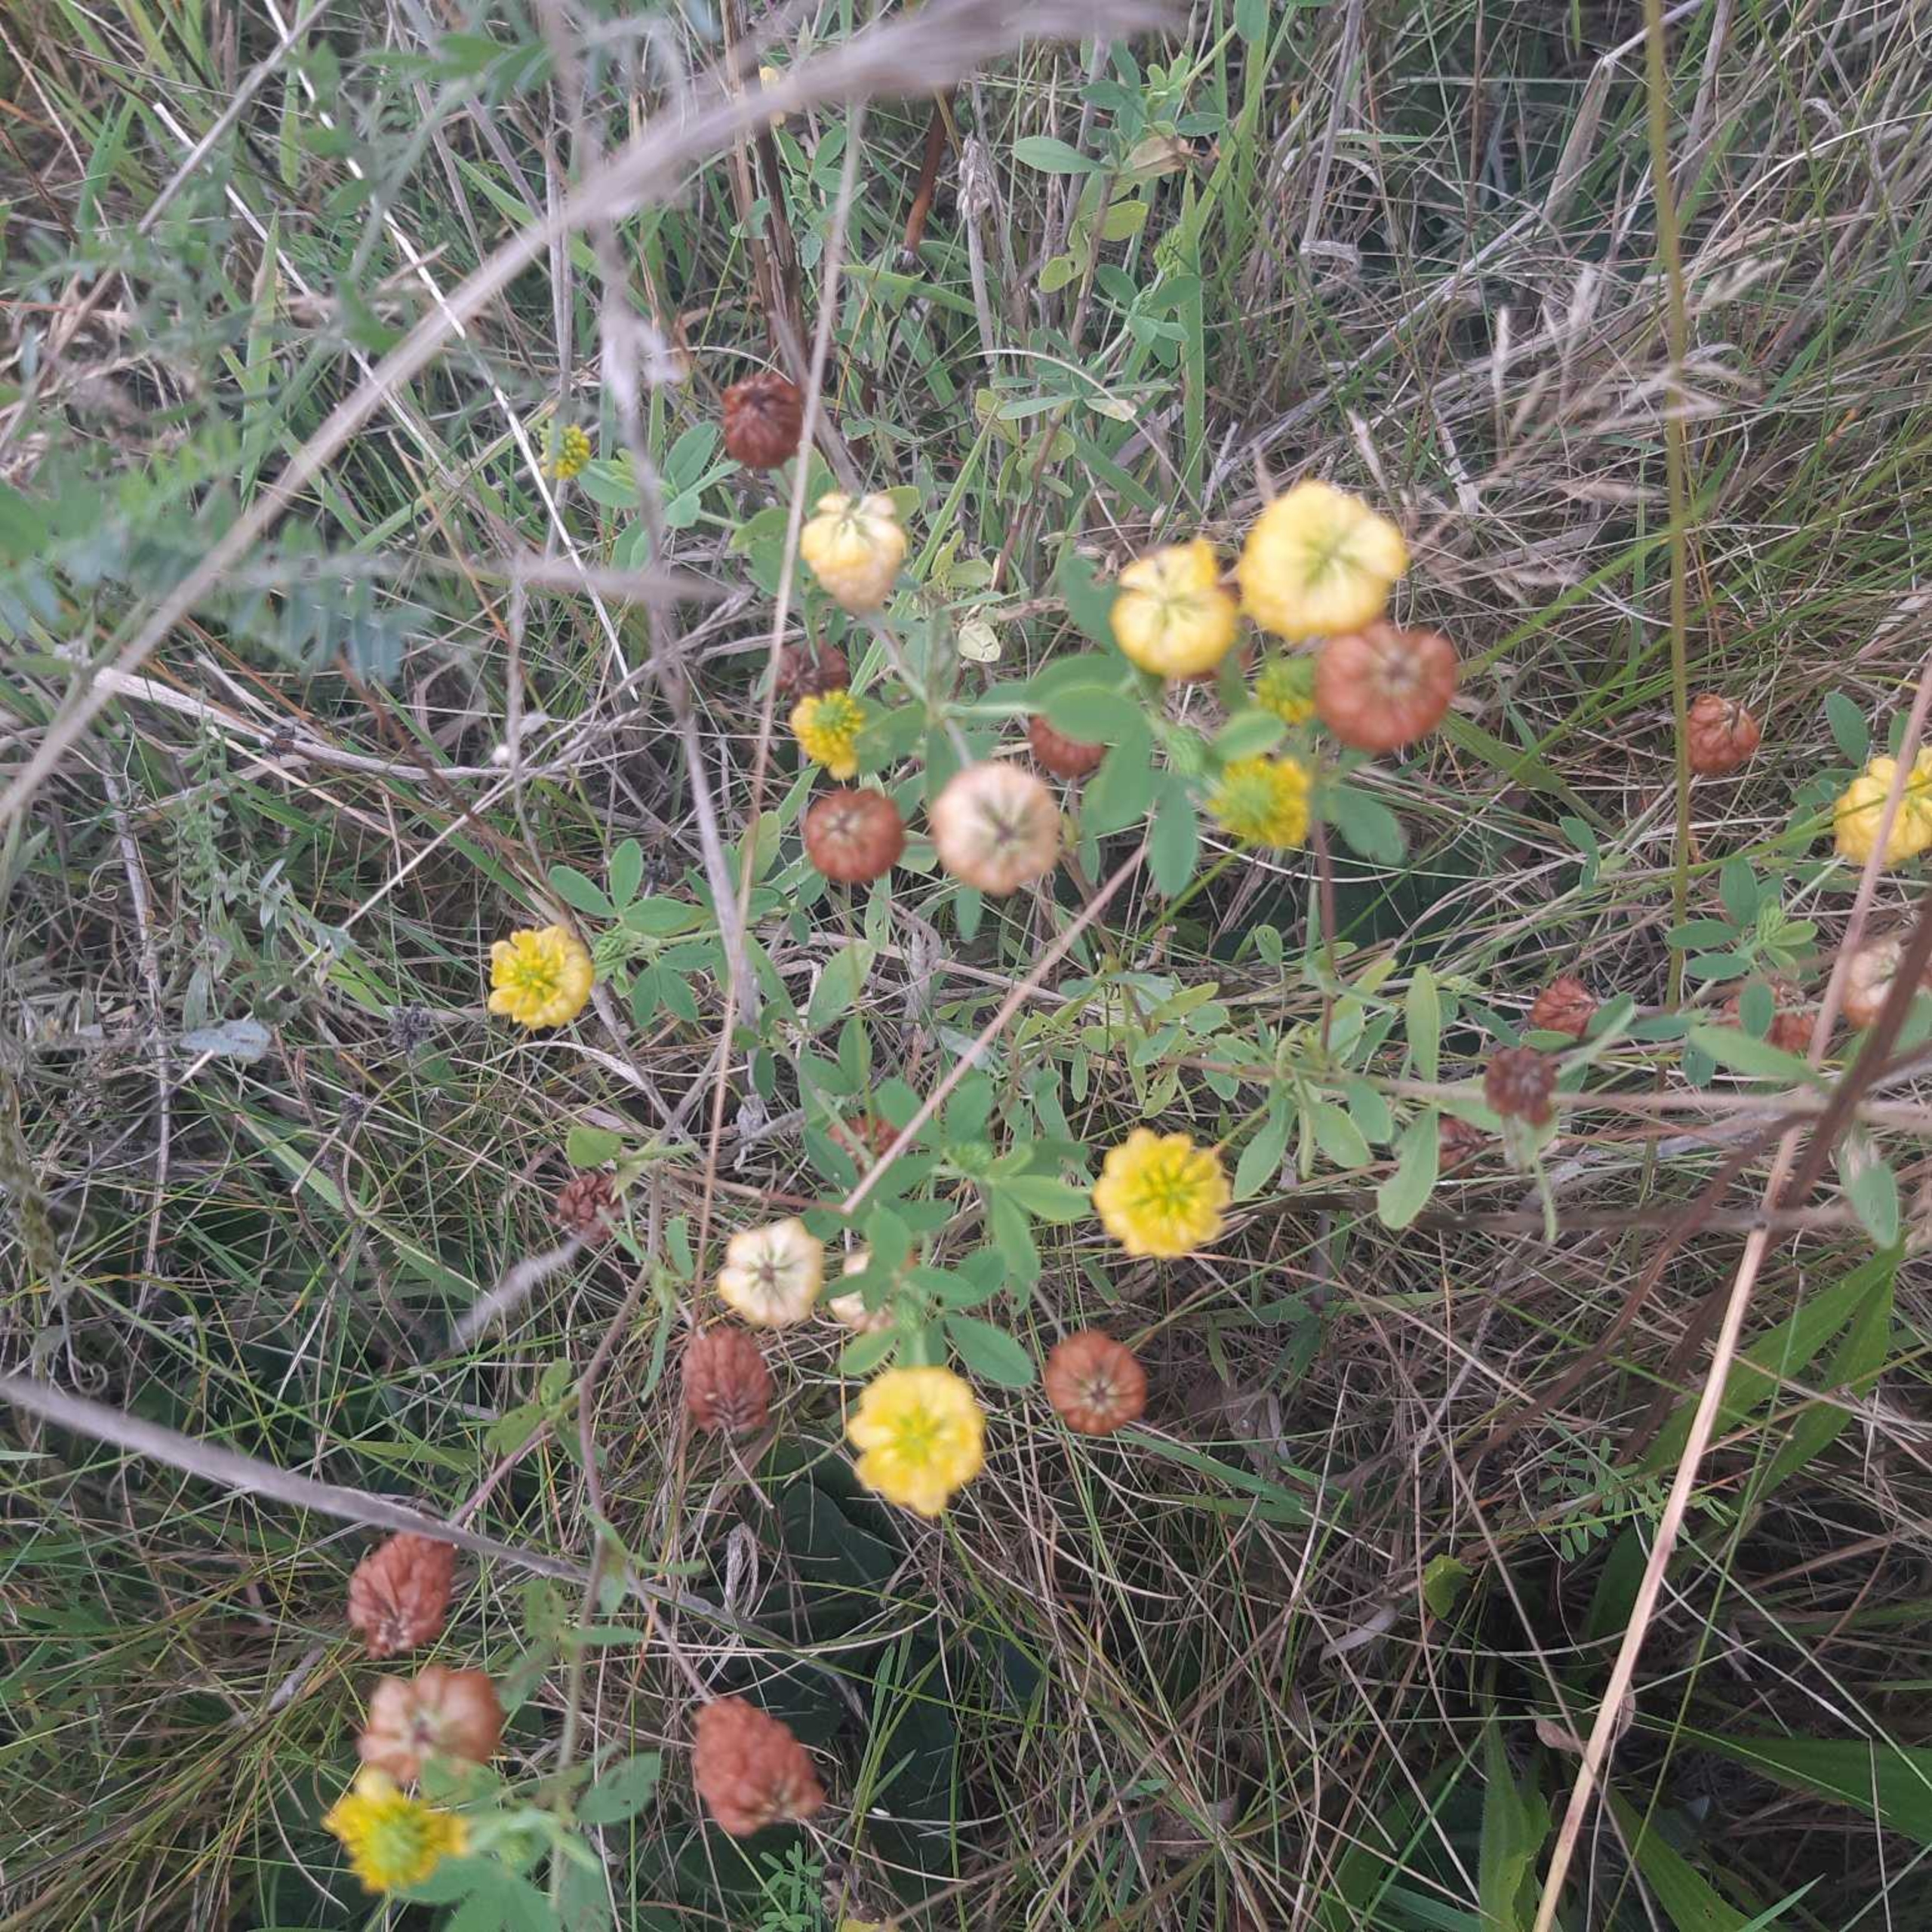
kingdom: Plantae
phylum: Tracheophyta
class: Magnoliopsida
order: Fabales
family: Fabaceae
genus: Trifolium
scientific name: Trifolium aureum
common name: Humle-kløver
